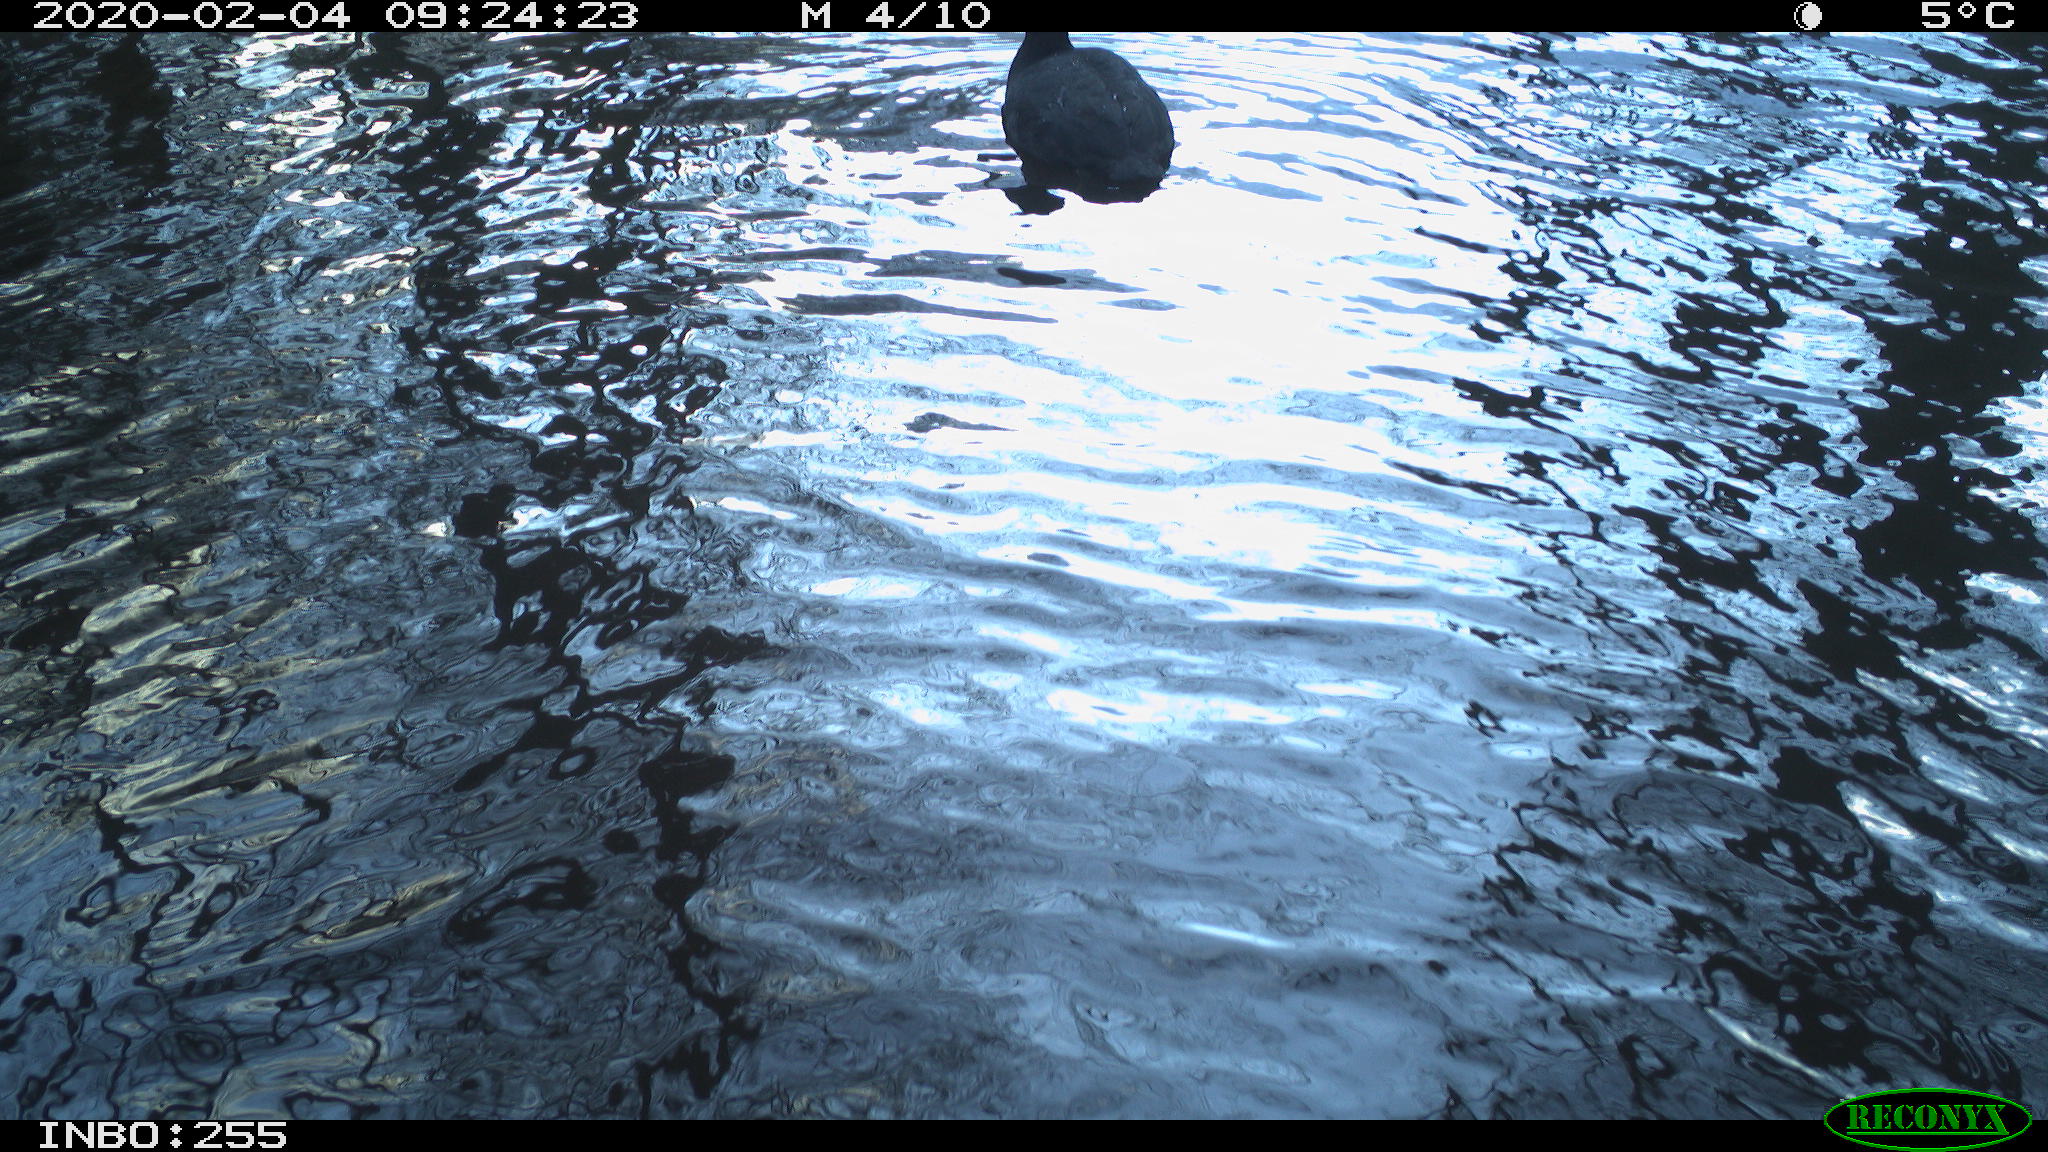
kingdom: Animalia
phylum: Chordata
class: Aves
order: Gruiformes
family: Rallidae
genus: Fulica
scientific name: Fulica atra
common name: Eurasian coot
